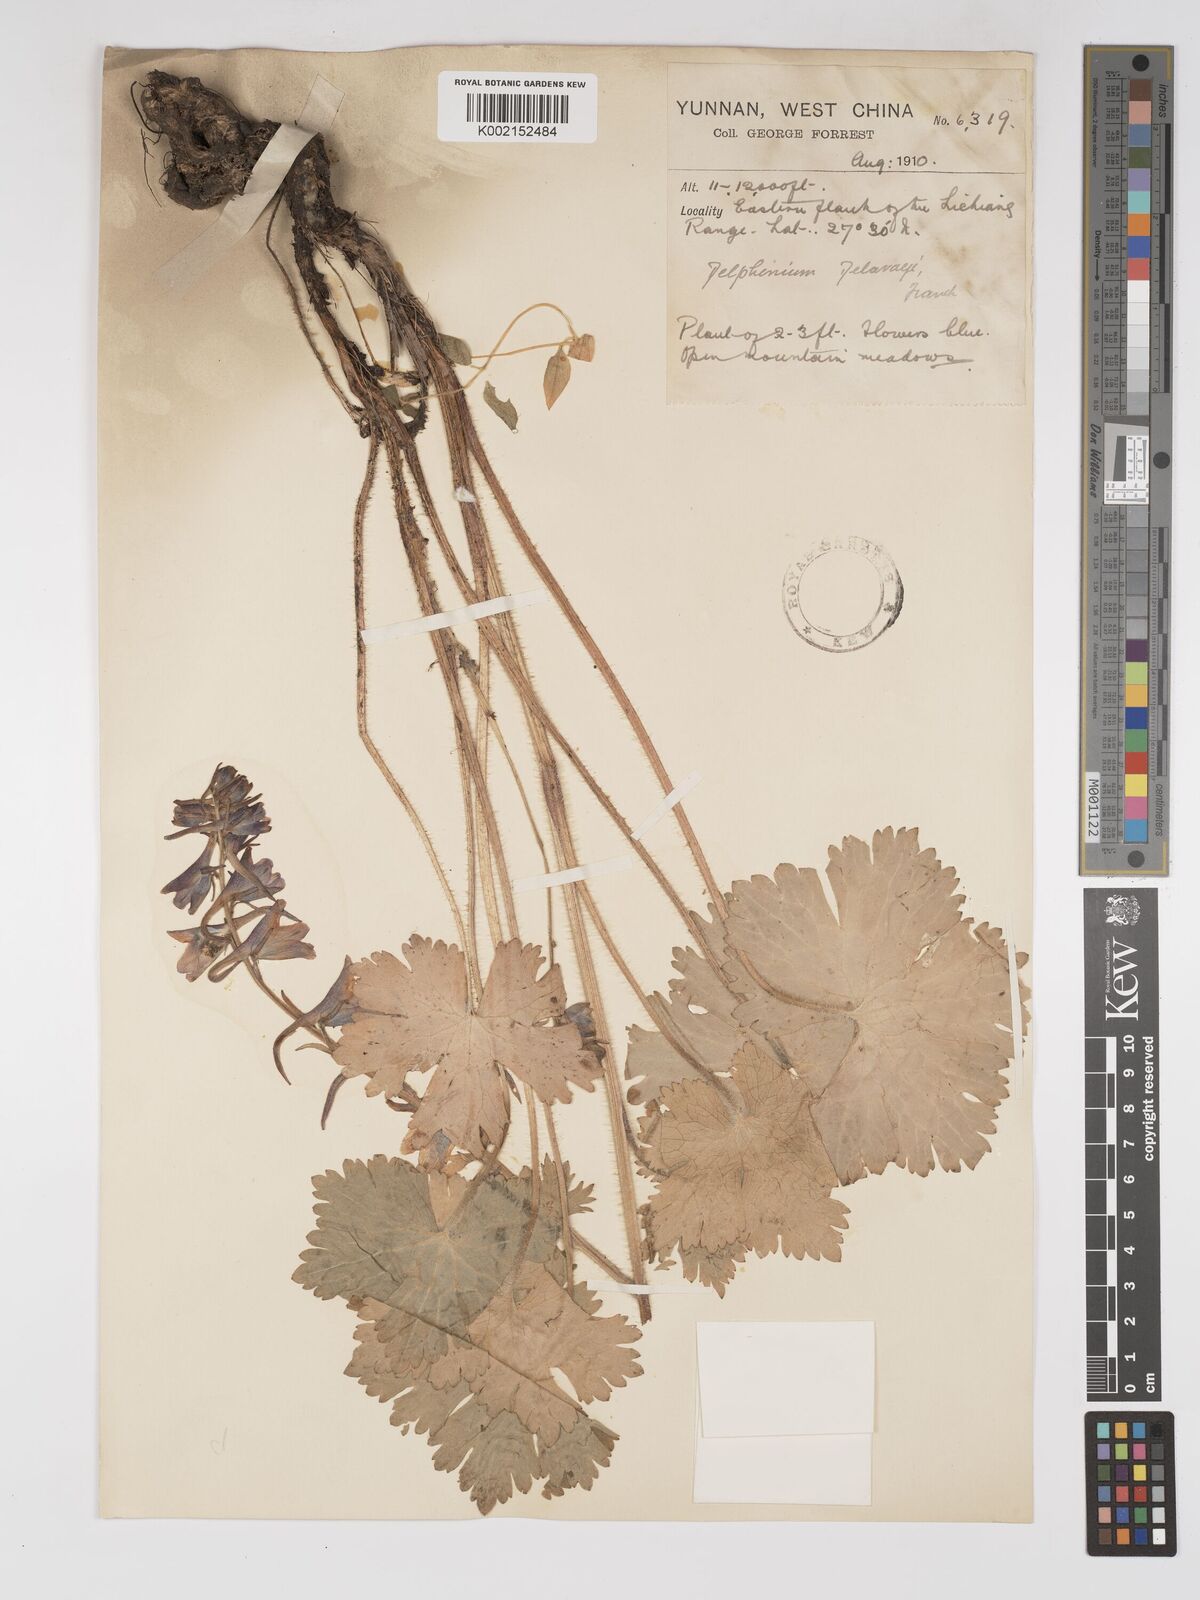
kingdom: Plantae
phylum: Tracheophyta
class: Magnoliopsida
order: Ranunculales
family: Ranunculaceae
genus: Delphinium
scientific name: Delphinium delavayi
